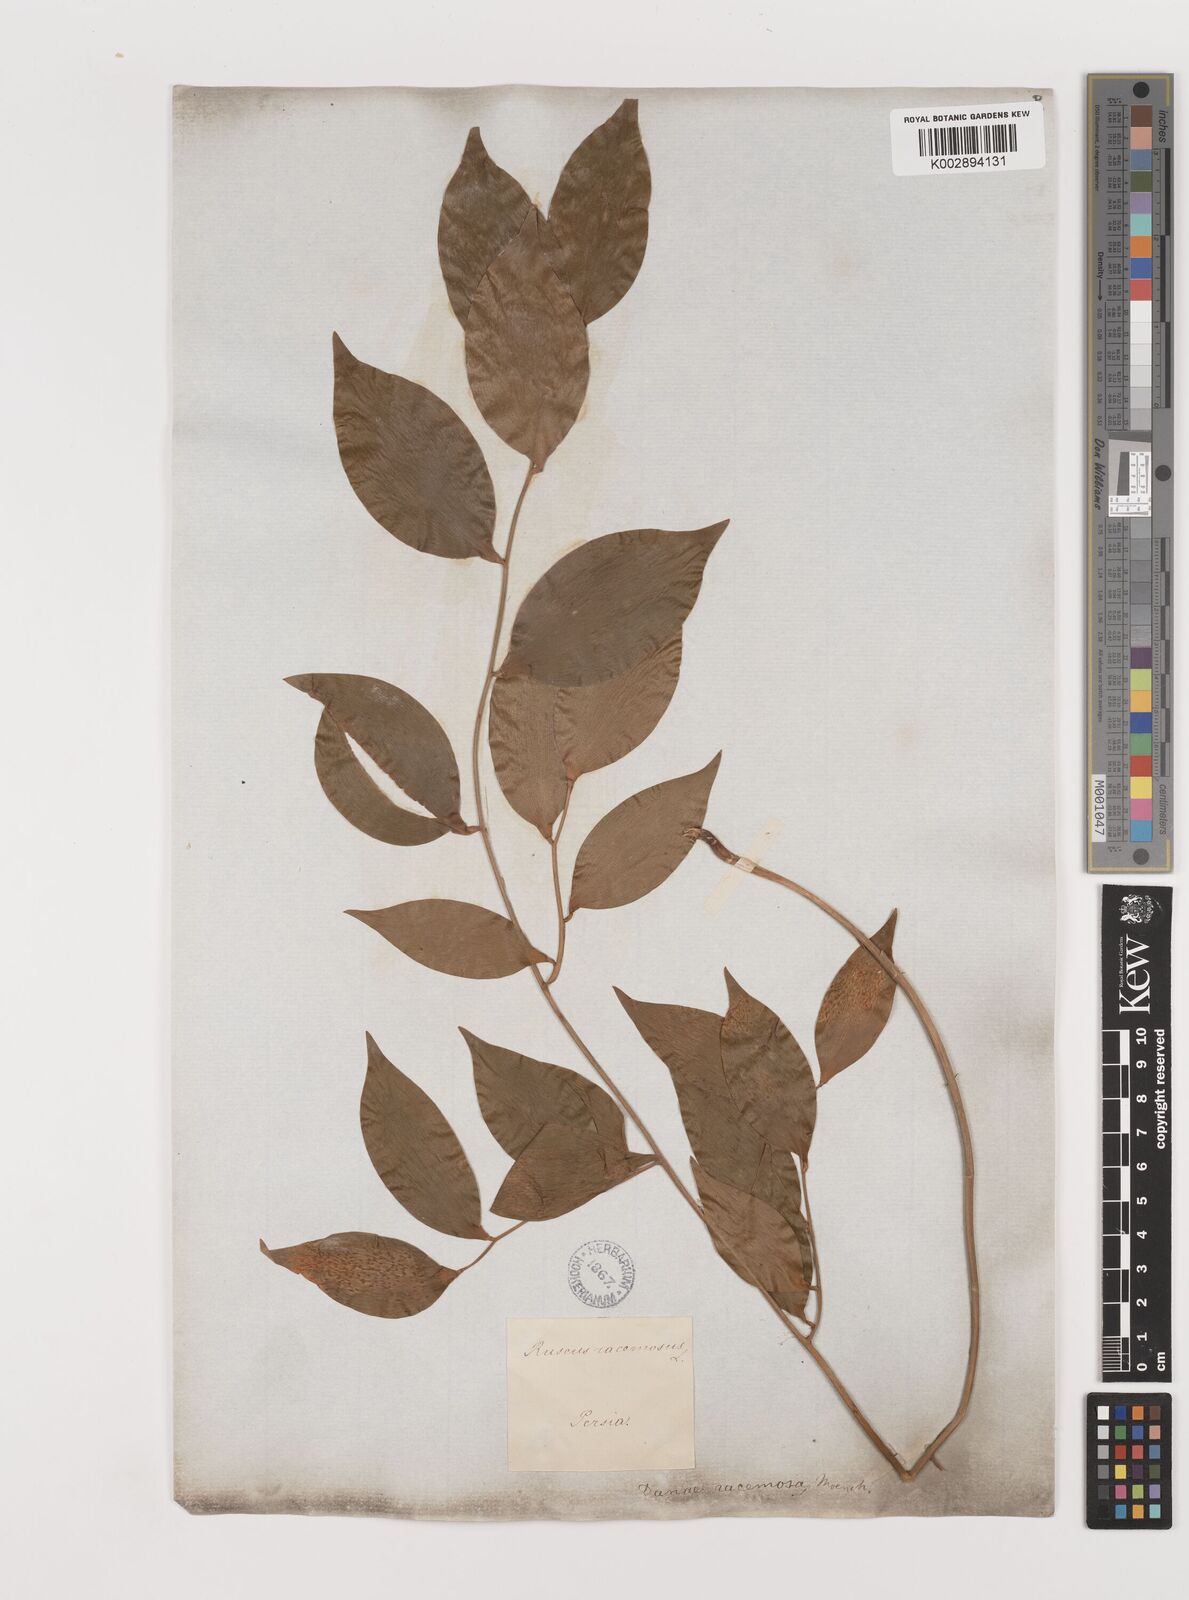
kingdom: Plantae
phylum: Tracheophyta
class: Liliopsida
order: Asparagales
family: Asparagaceae
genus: Ruscus
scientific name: Ruscus hypophyllum
